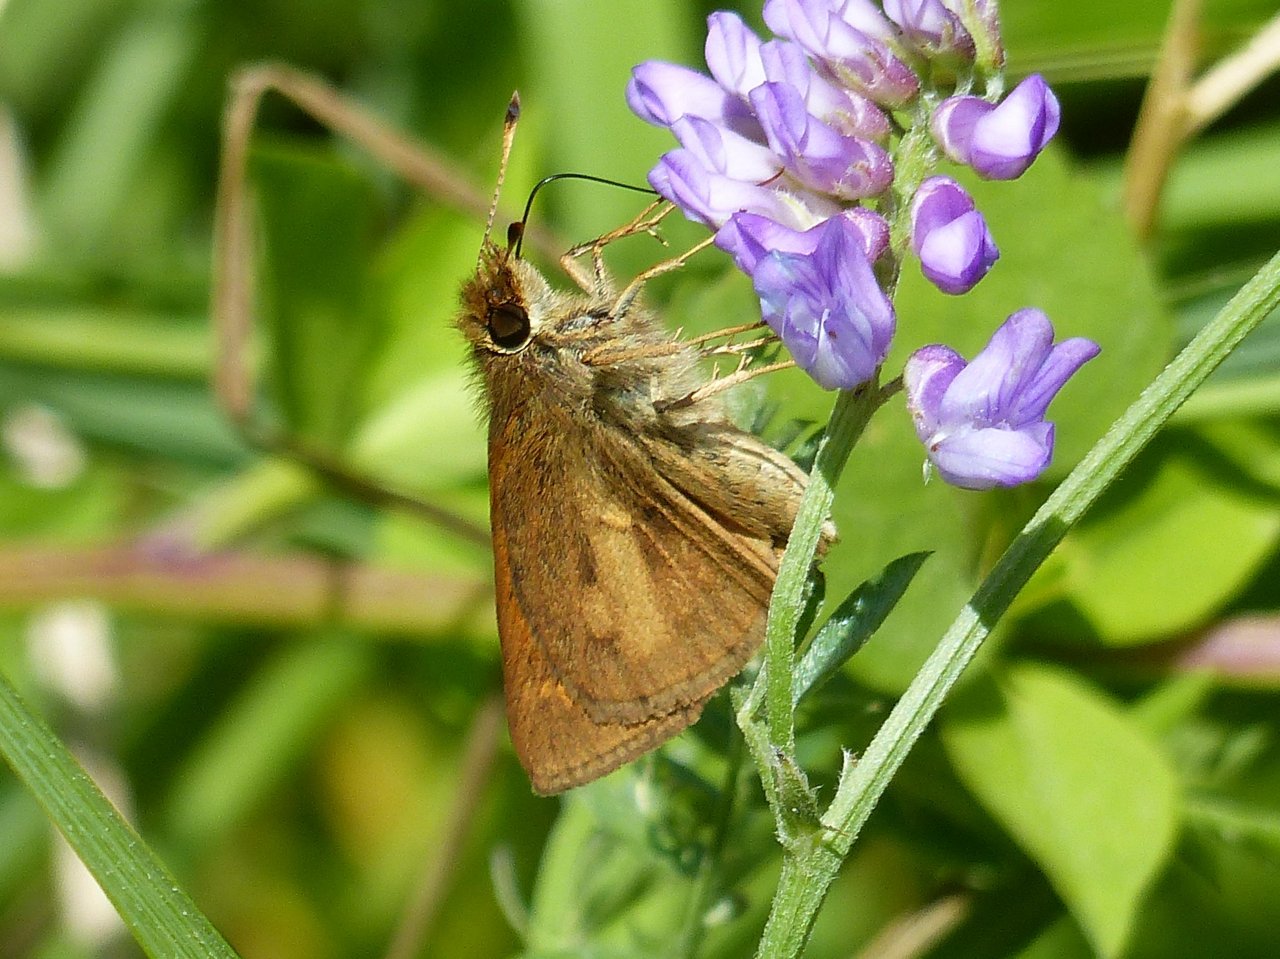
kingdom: Animalia
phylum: Arthropoda
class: Insecta
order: Lepidoptera
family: Hesperiidae
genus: Poanes
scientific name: Poanes viator
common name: Broad-winged Skipper
